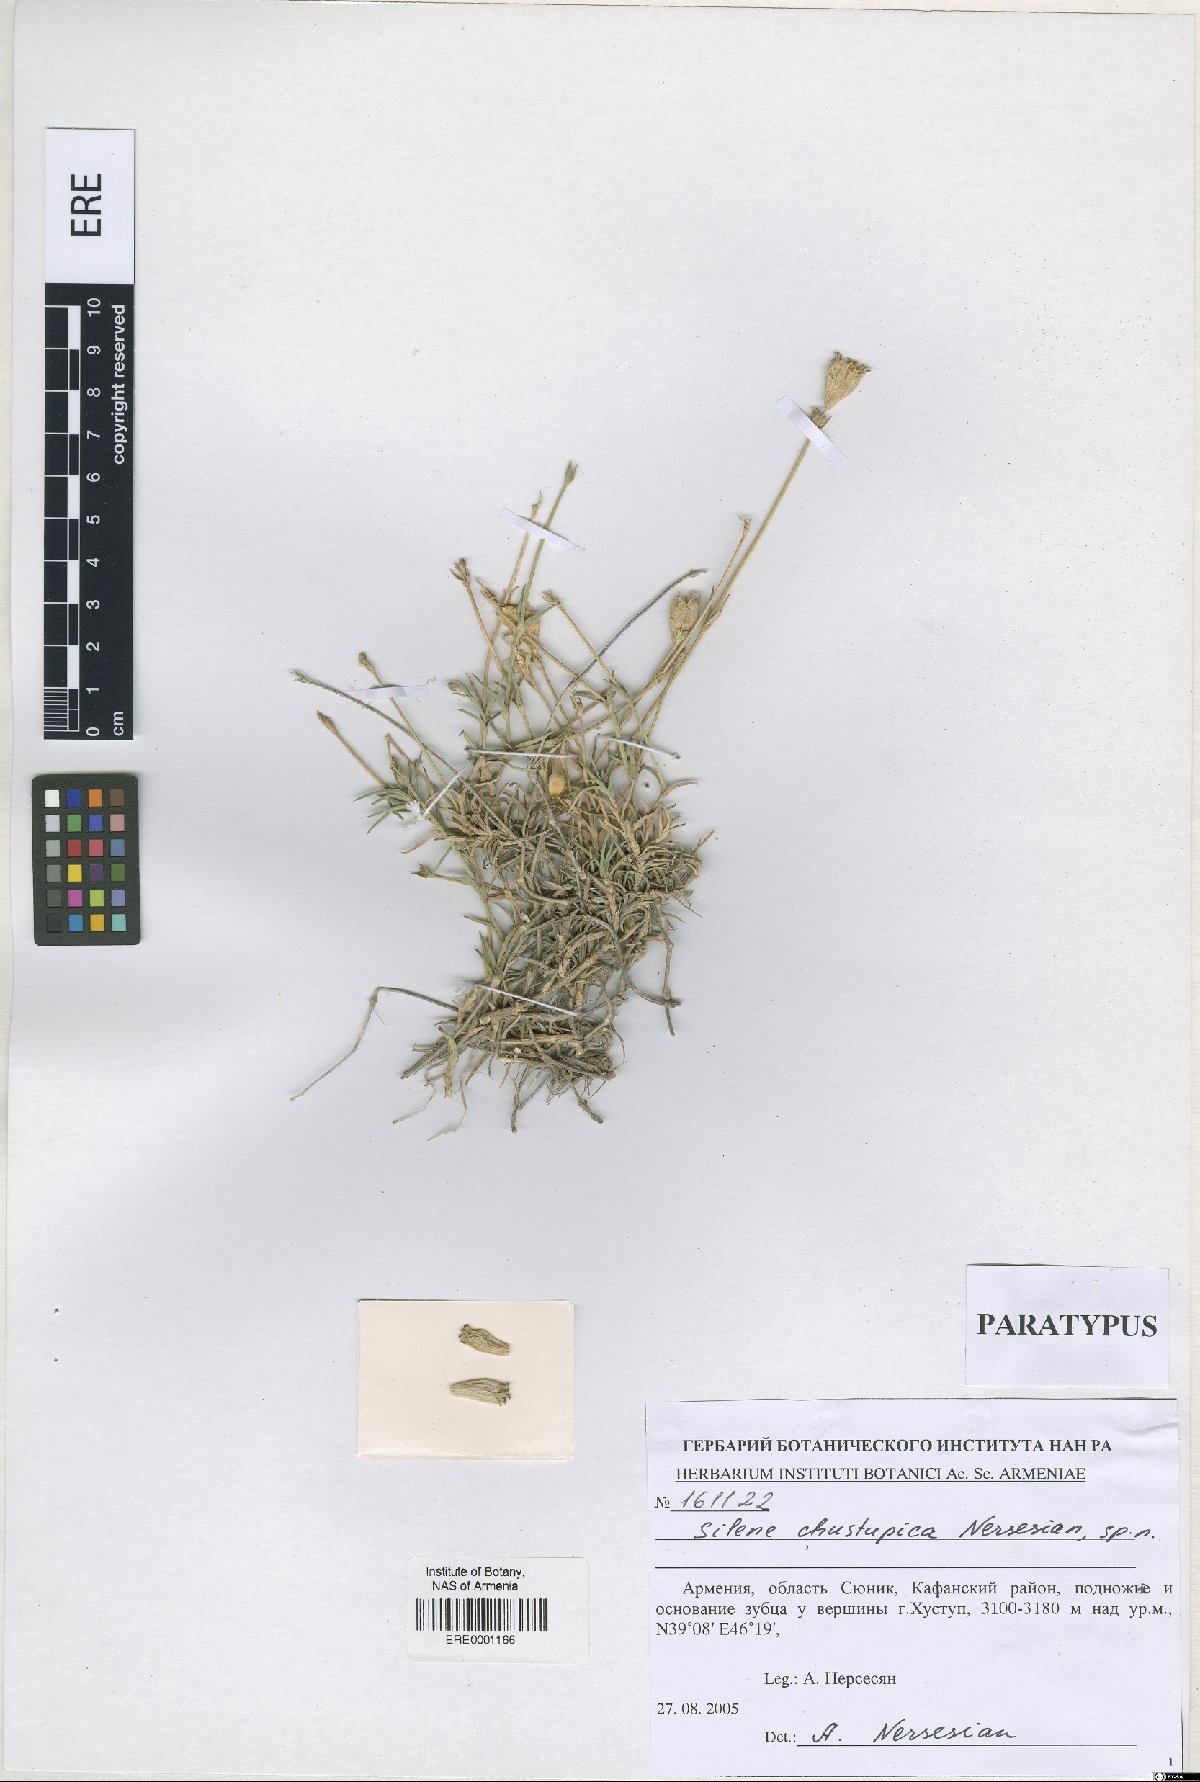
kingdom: Plantae
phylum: Tracheophyta
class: Magnoliopsida
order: Caryophyllales
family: Caryophyllaceae
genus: Silene
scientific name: Silene pungens
